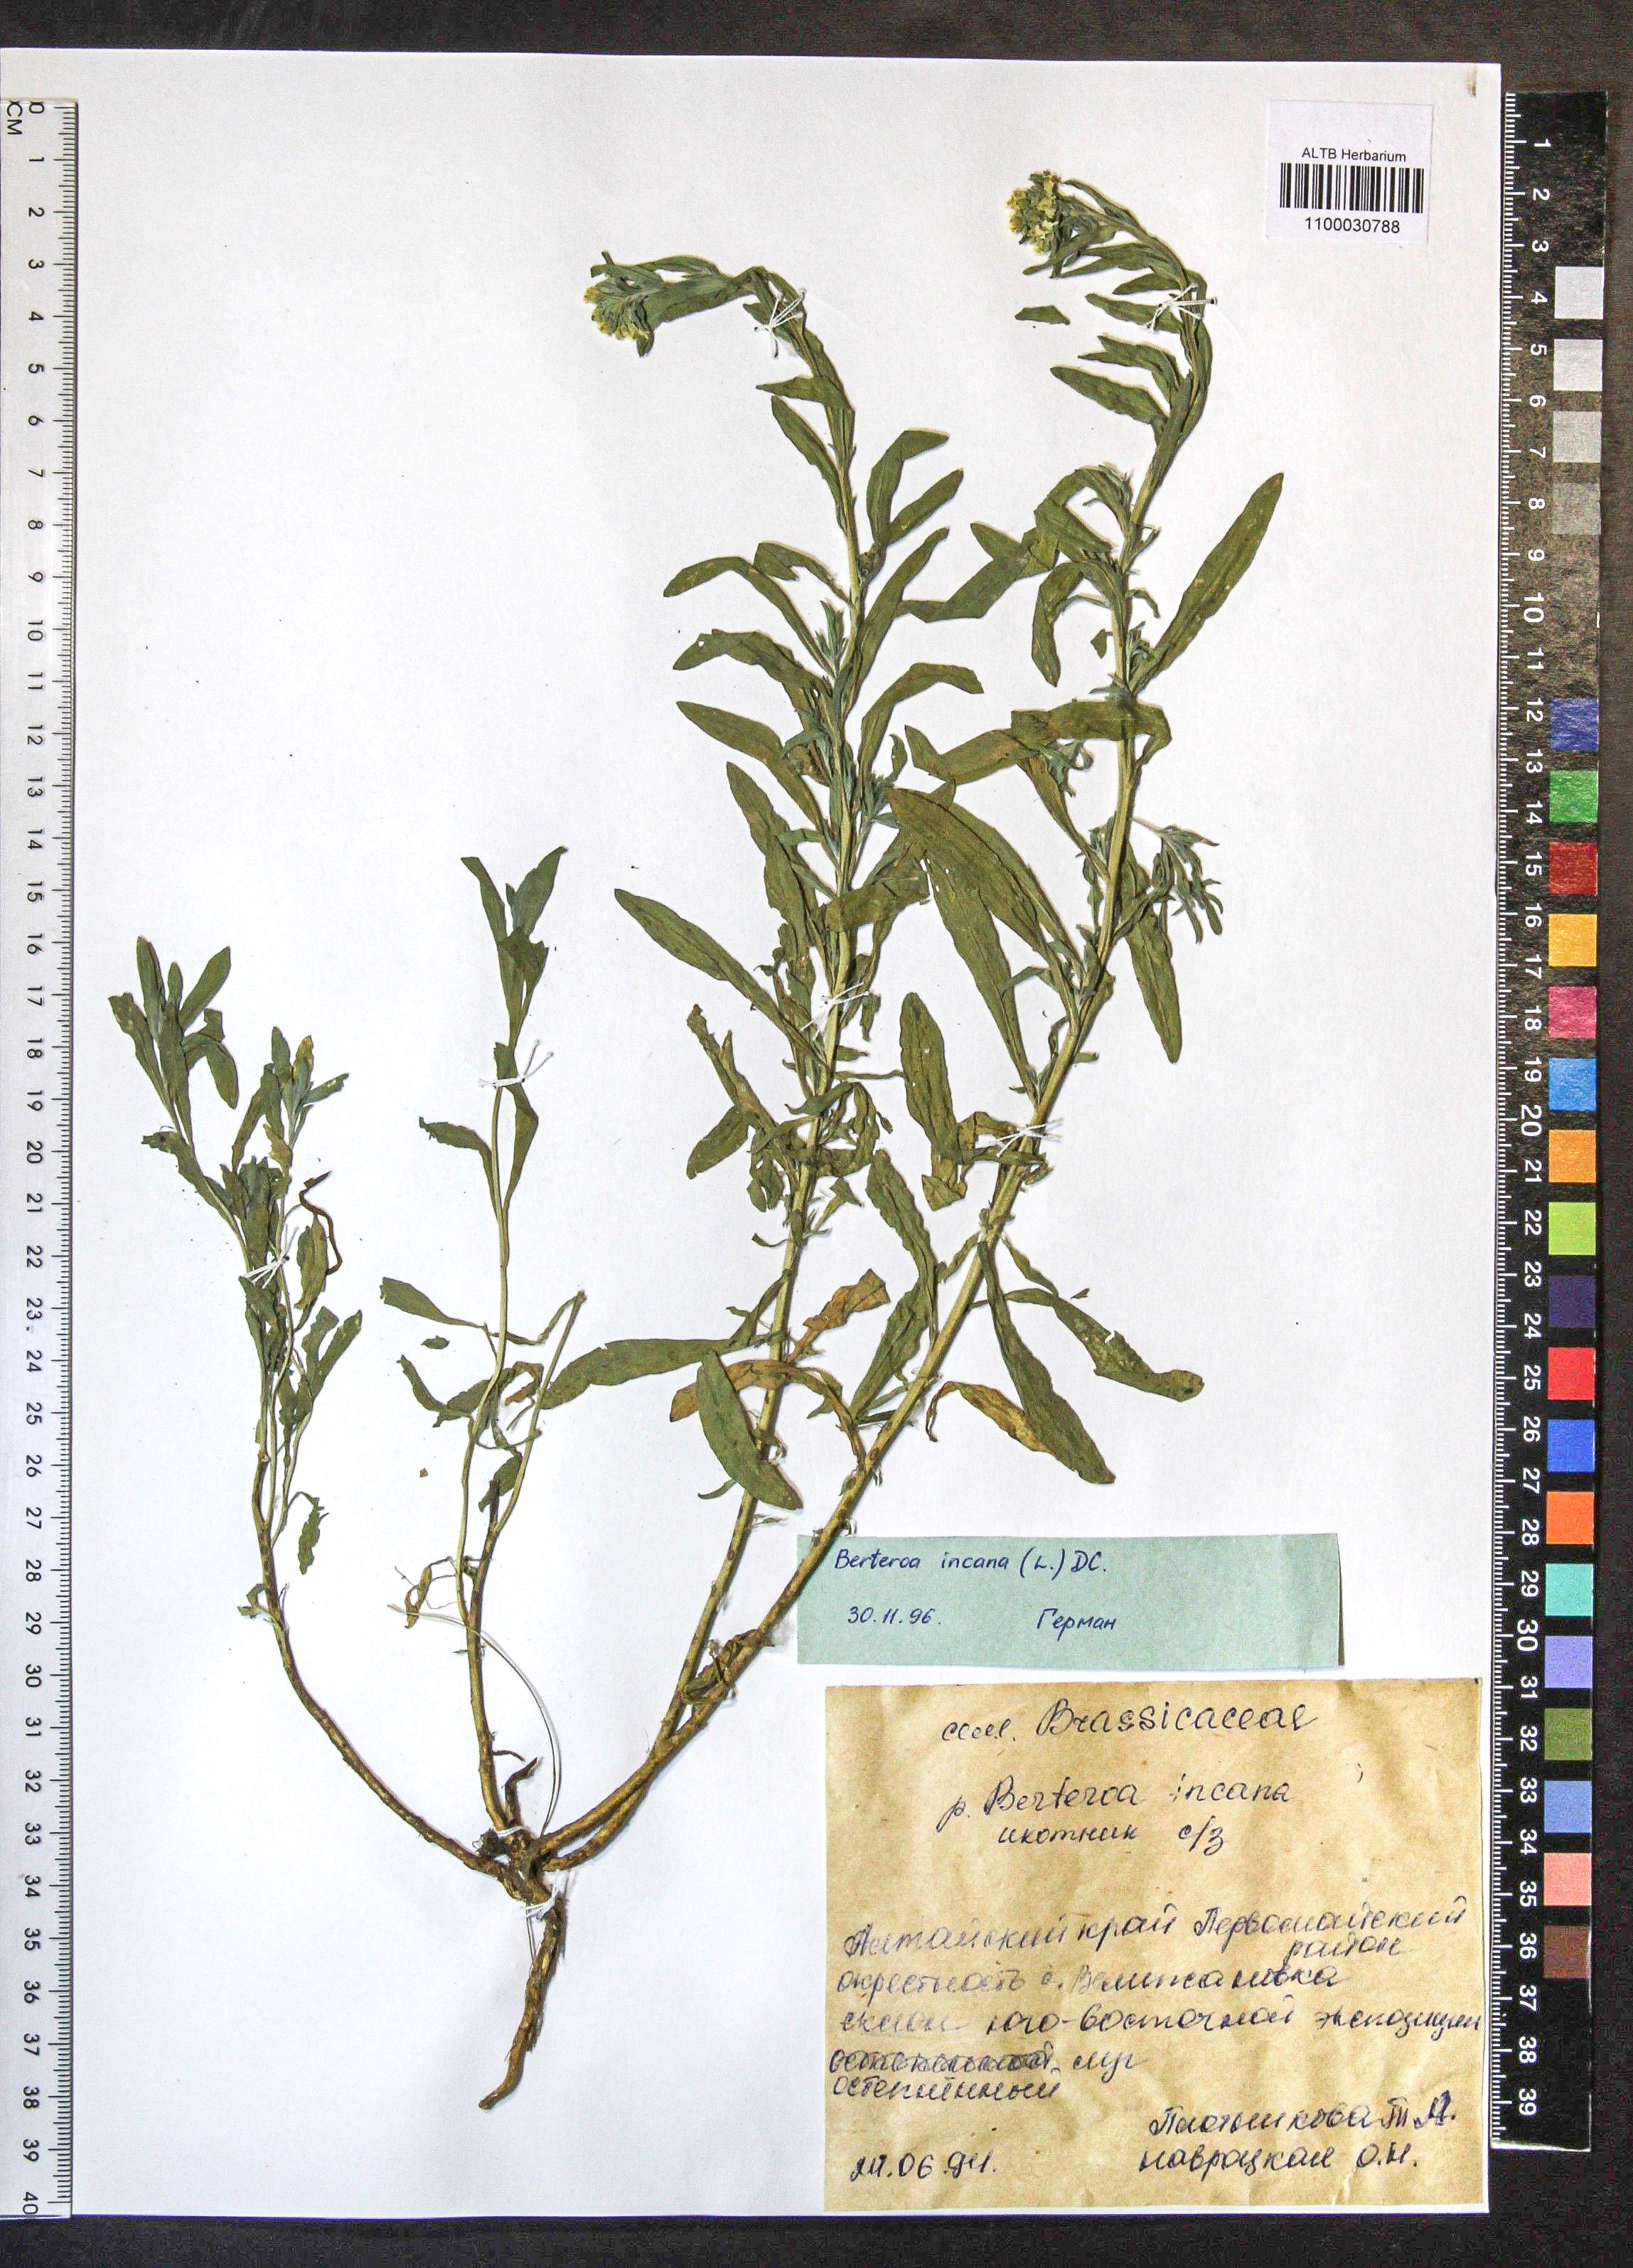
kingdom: Plantae
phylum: Tracheophyta
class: Magnoliopsida
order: Brassicales
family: Brassicaceae
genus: Berteroa
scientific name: Berteroa incana
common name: Hoary alison
